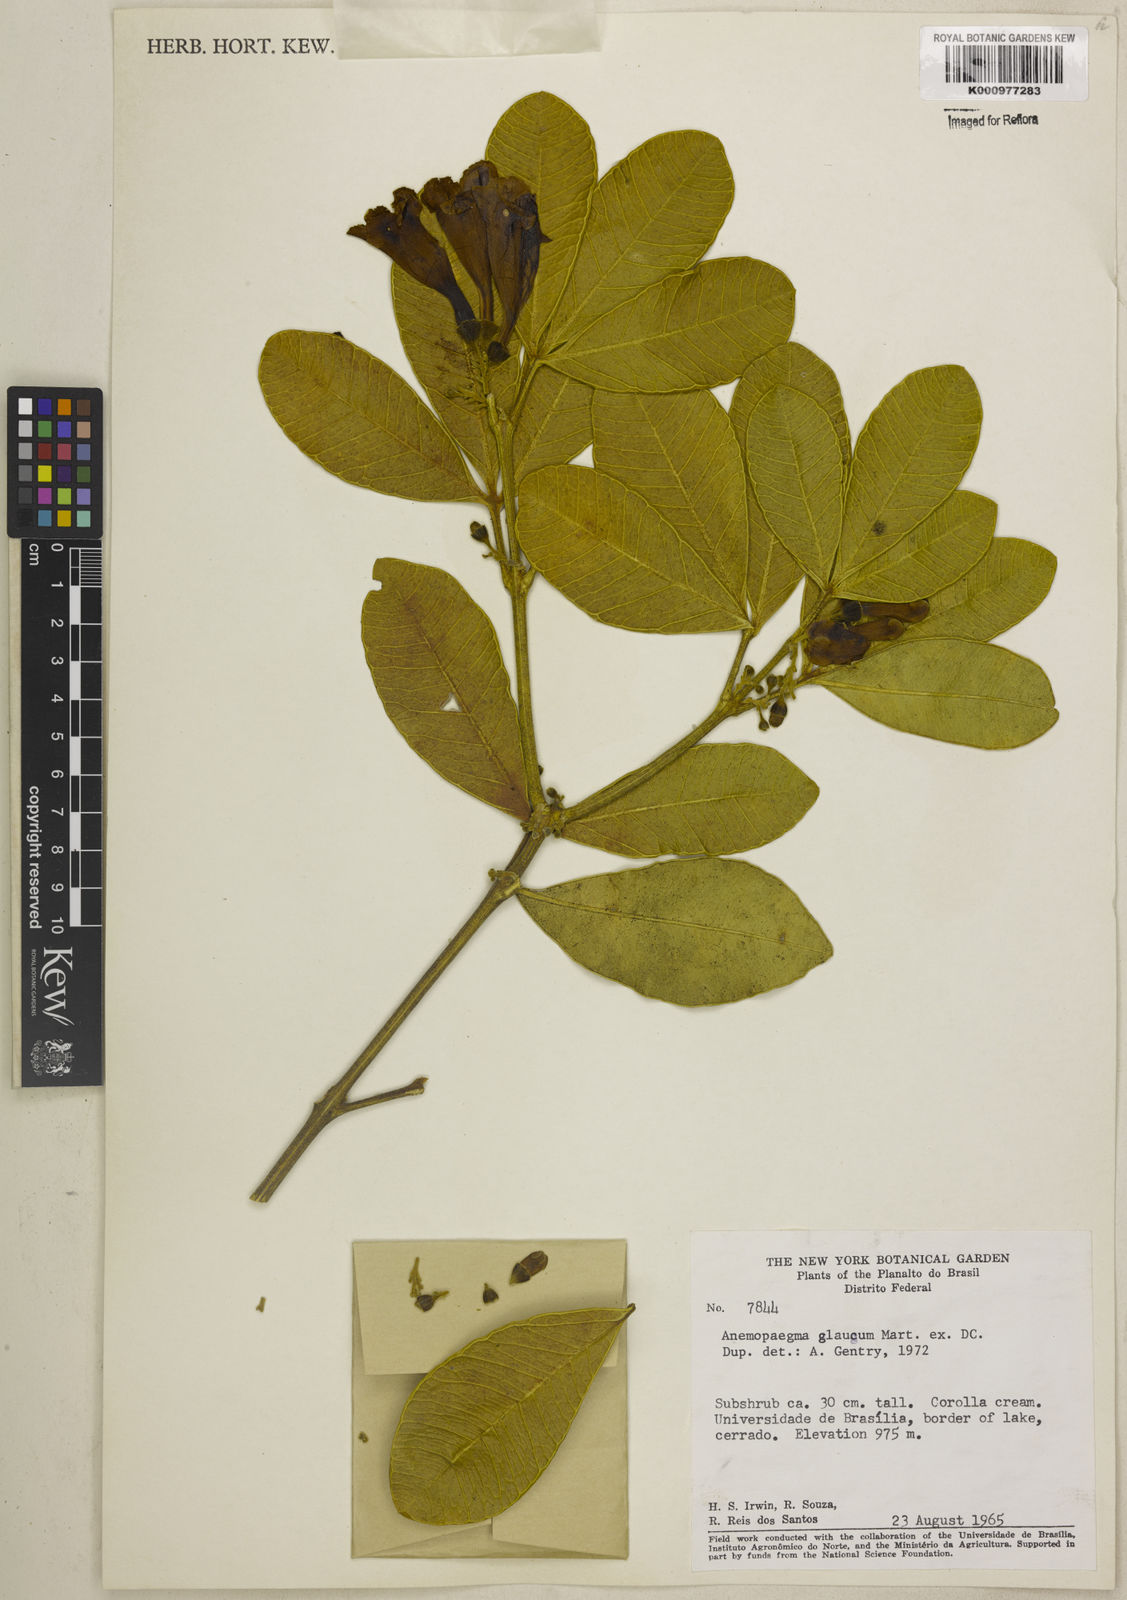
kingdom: Plantae
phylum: Tracheophyta
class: Magnoliopsida
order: Lamiales
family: Bignoniaceae
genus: Anemopaegma
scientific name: Anemopaegma
